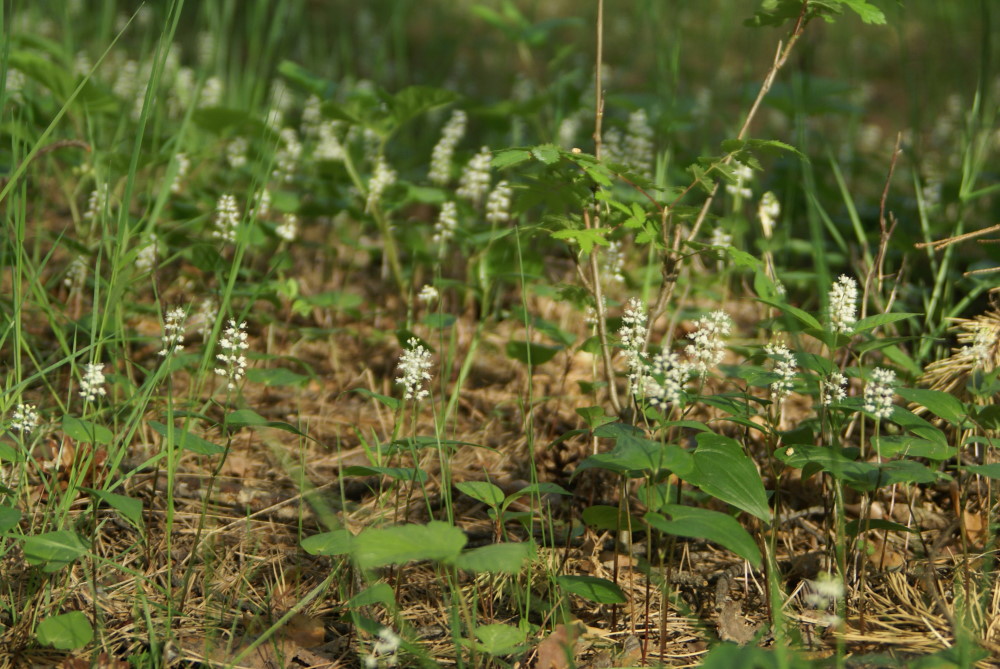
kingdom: Plantae
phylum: Tracheophyta
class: Liliopsida
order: Asparagales
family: Asparagaceae
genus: Maianthemum
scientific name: Maianthemum bifolium
